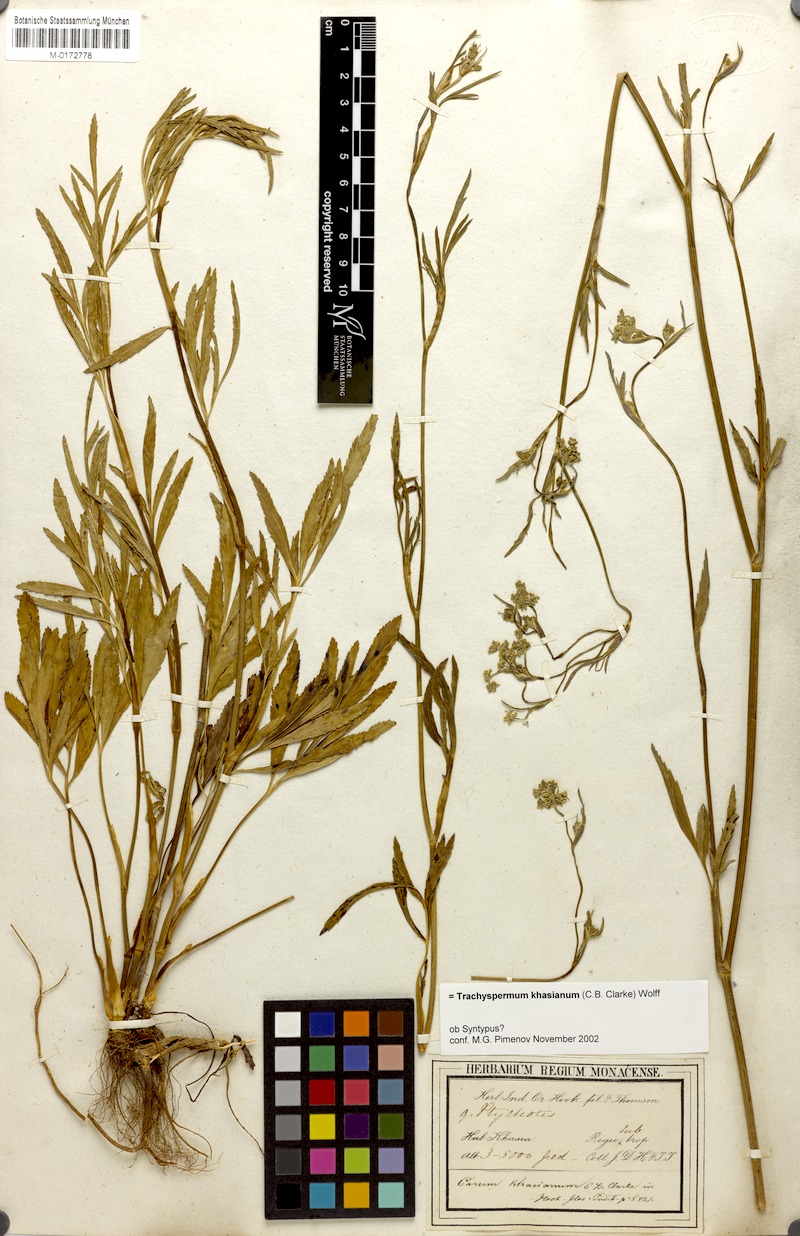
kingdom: Plantae
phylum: Tracheophyta
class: Magnoliopsida
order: Apiales
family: Apiaceae
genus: Trachyspermum
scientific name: Trachyspermum khasianum
